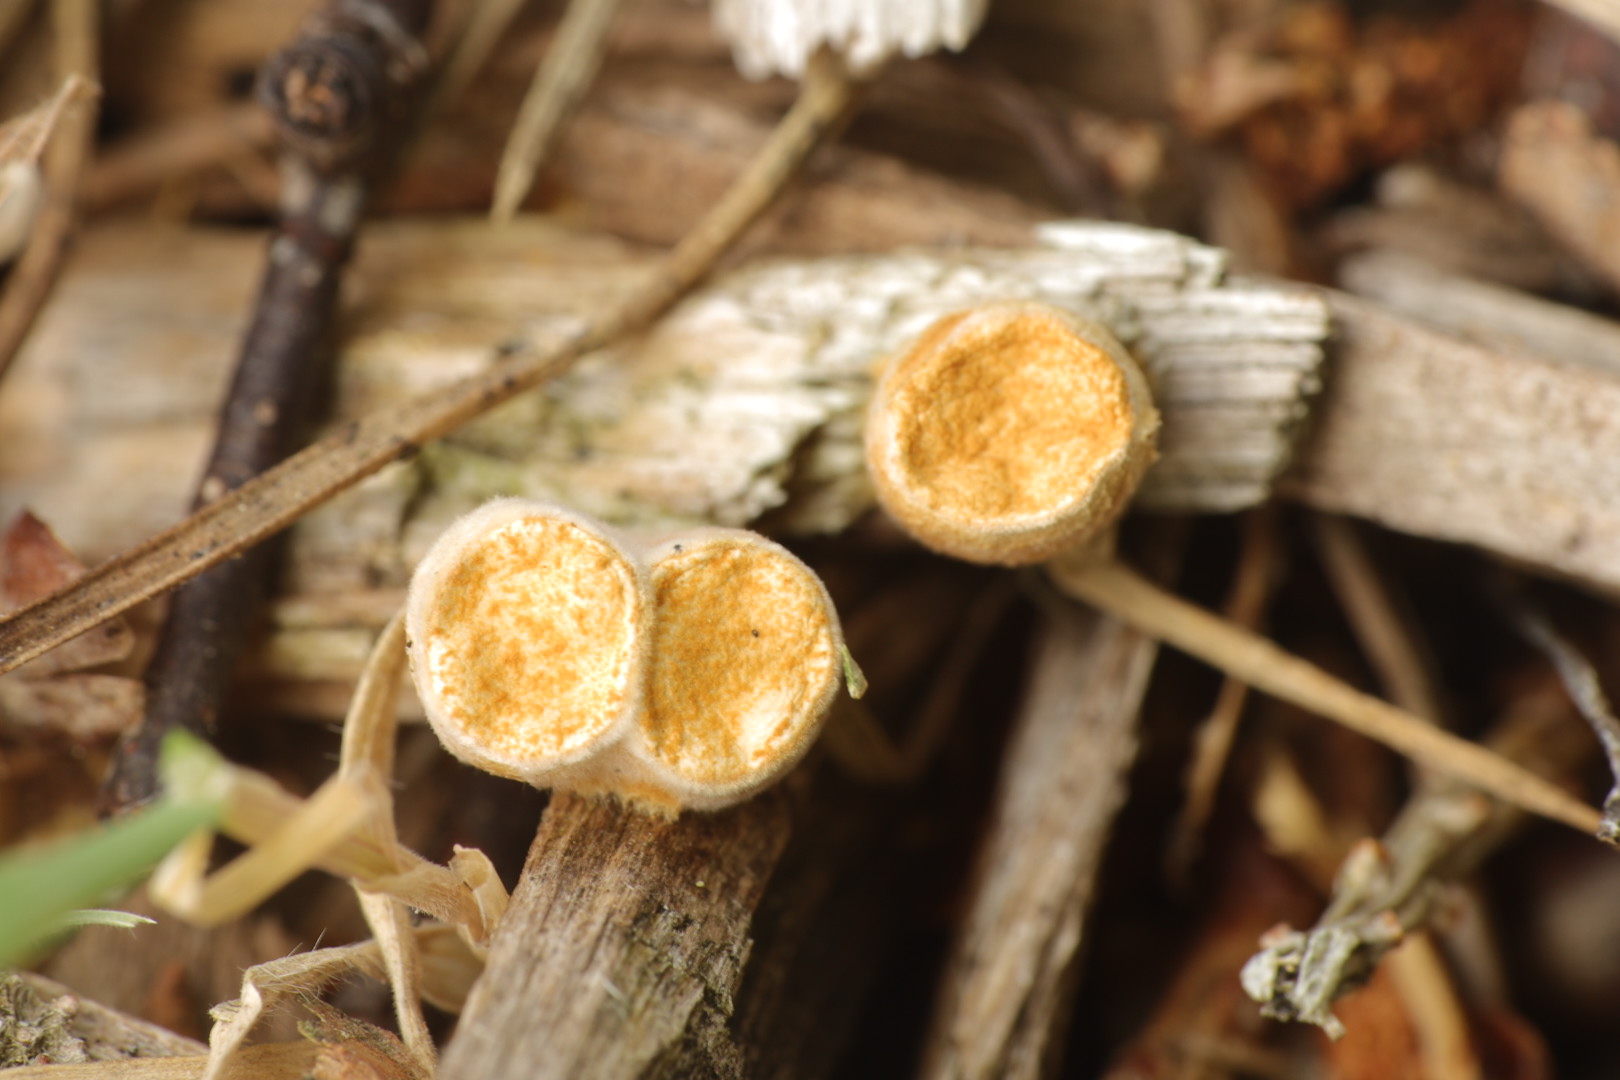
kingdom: Fungi
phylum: Basidiomycota
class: Agaricomycetes
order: Agaricales
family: Nidulariaceae
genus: Crucibulum
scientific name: Crucibulum crucibuliforme
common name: krukkesvamp
